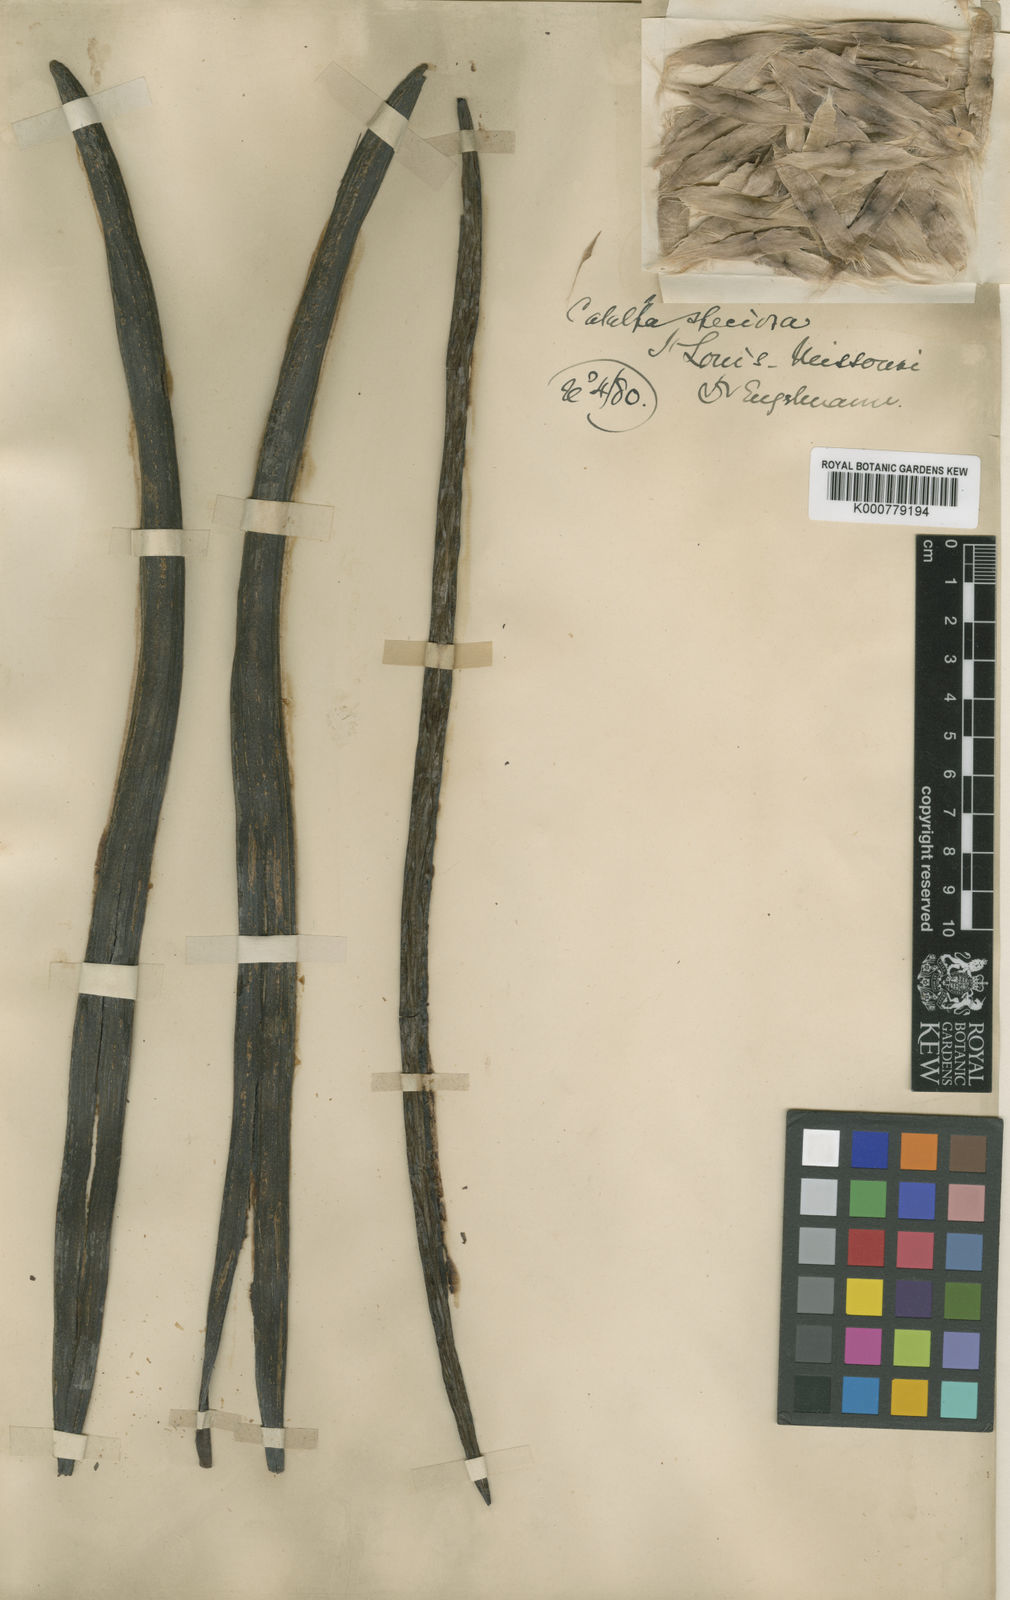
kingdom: Plantae
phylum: Tracheophyta
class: Magnoliopsida
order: Lamiales
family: Bignoniaceae
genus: Catalpa
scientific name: Catalpa
